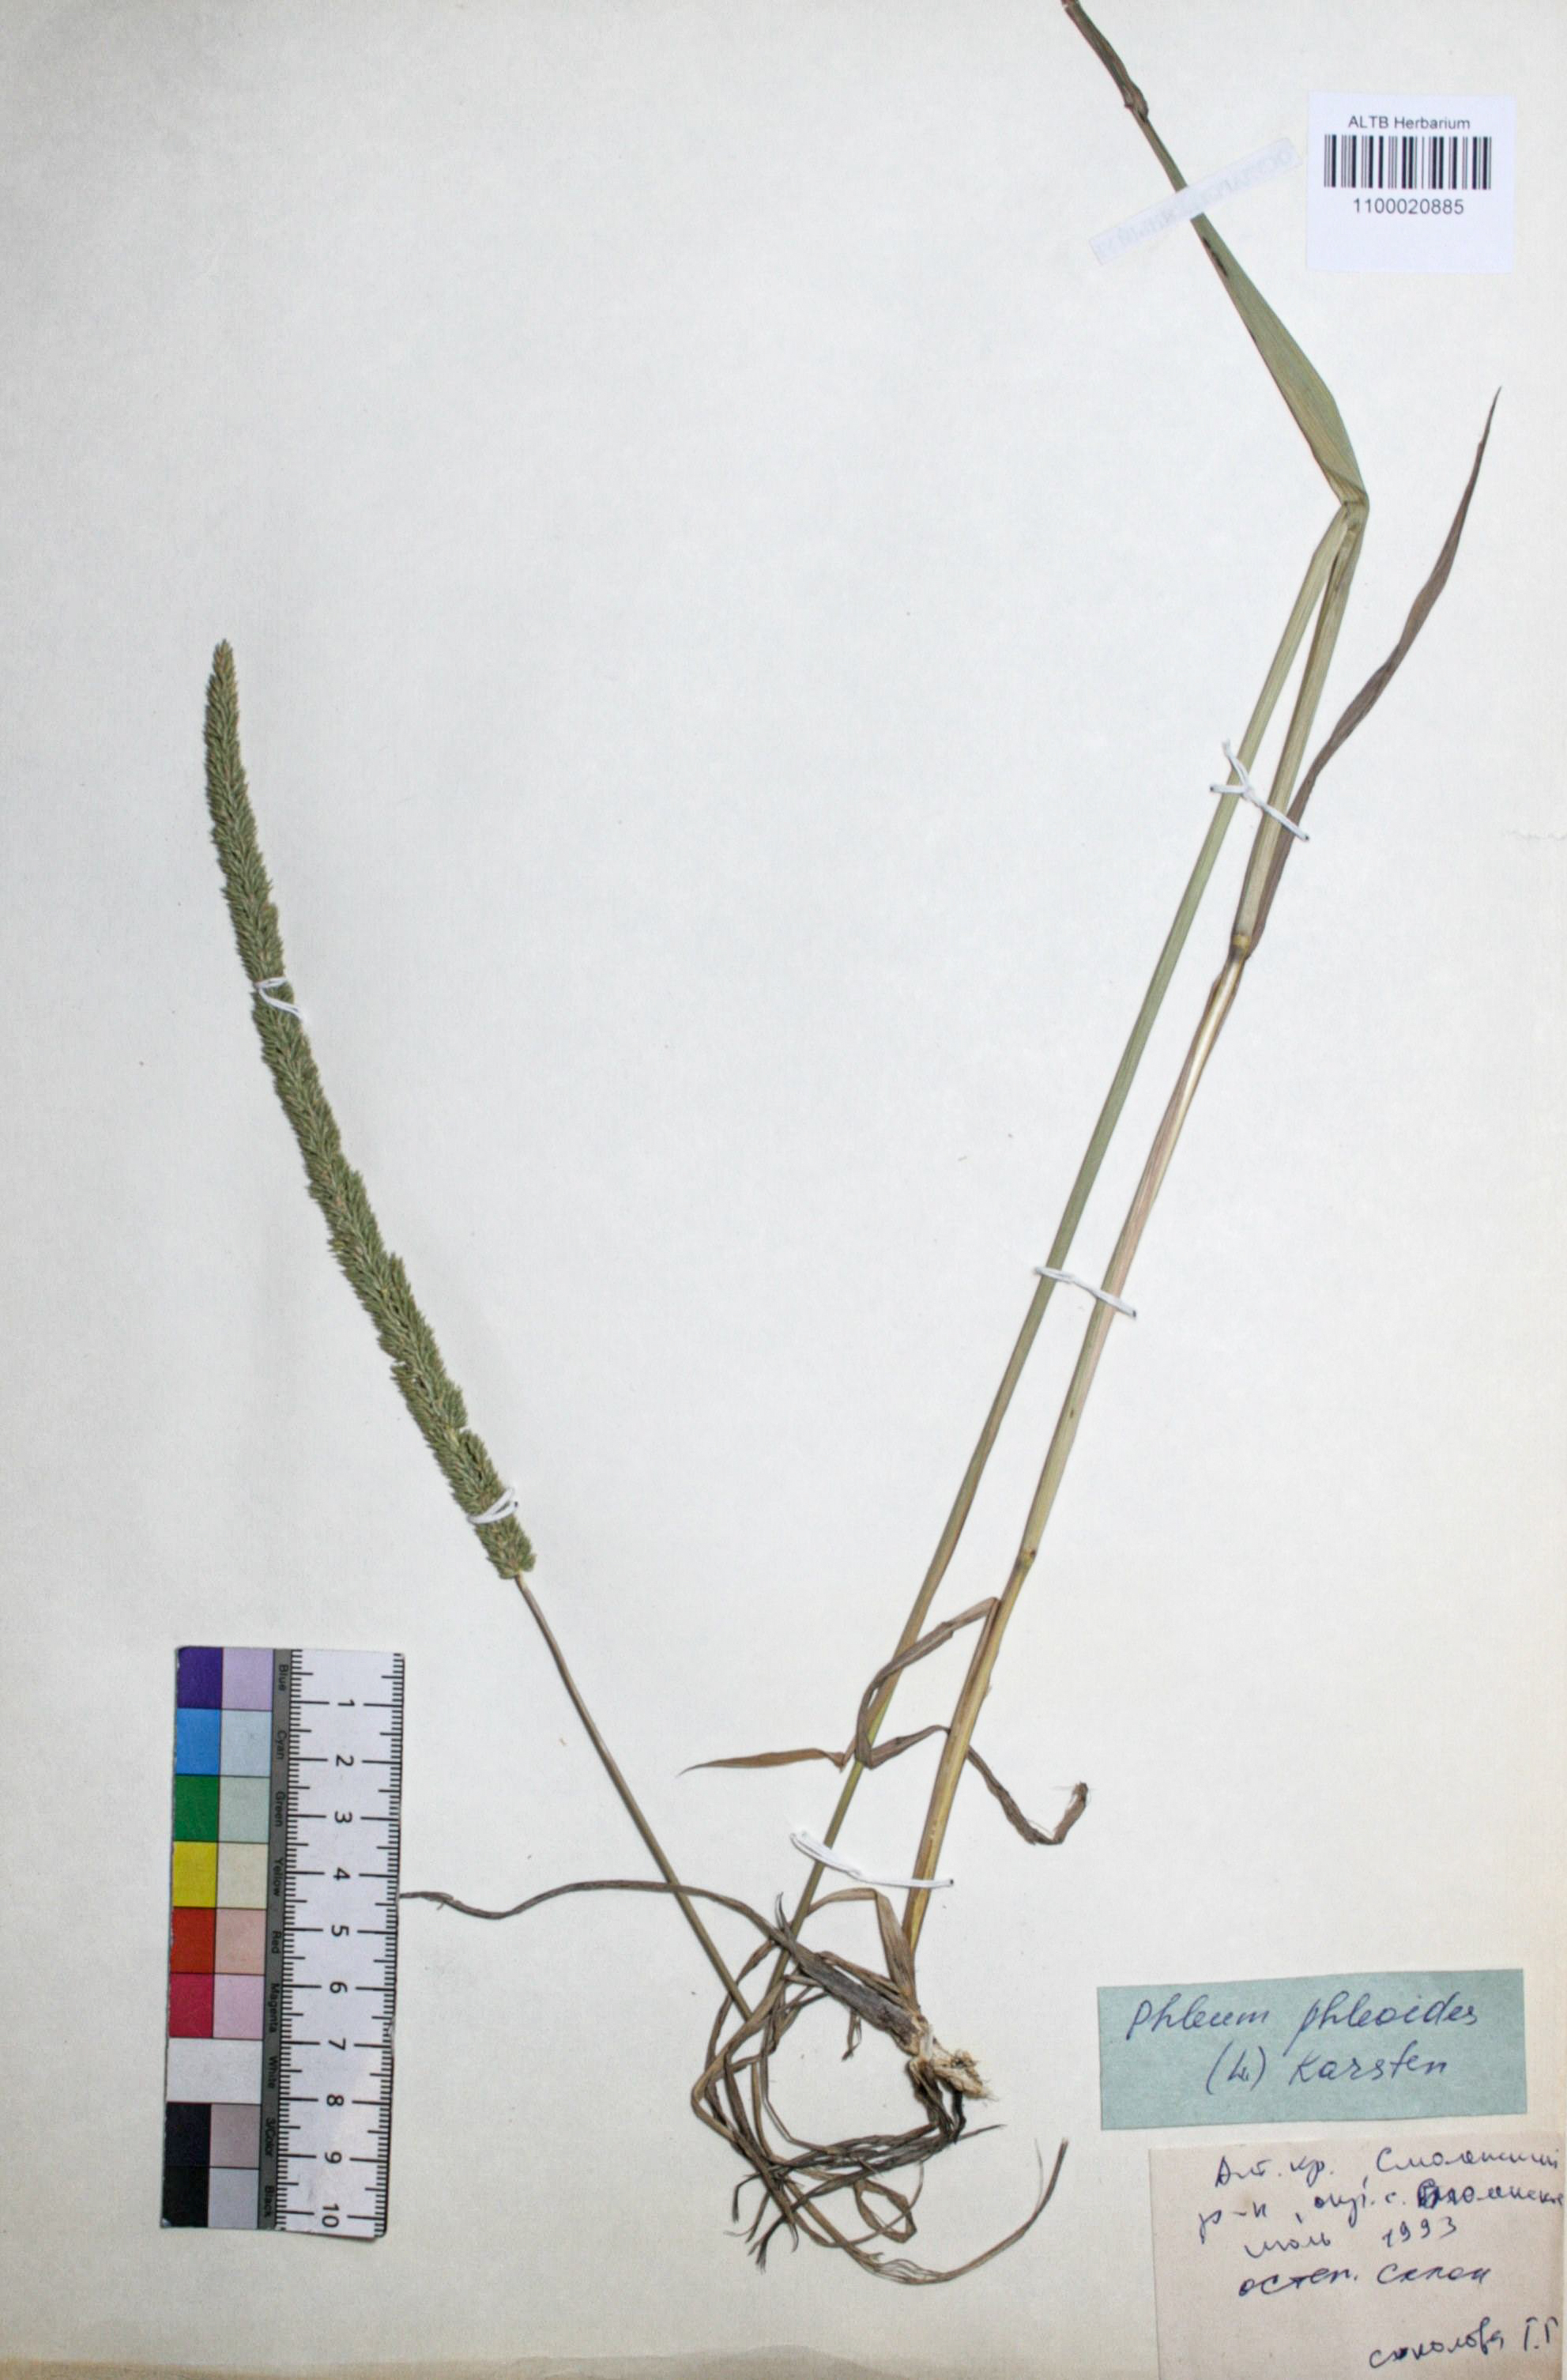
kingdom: Plantae
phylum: Tracheophyta
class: Liliopsida
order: Poales
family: Poaceae
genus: Phleum
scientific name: Phleum phleoides
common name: Purple-stem cat's-tail
